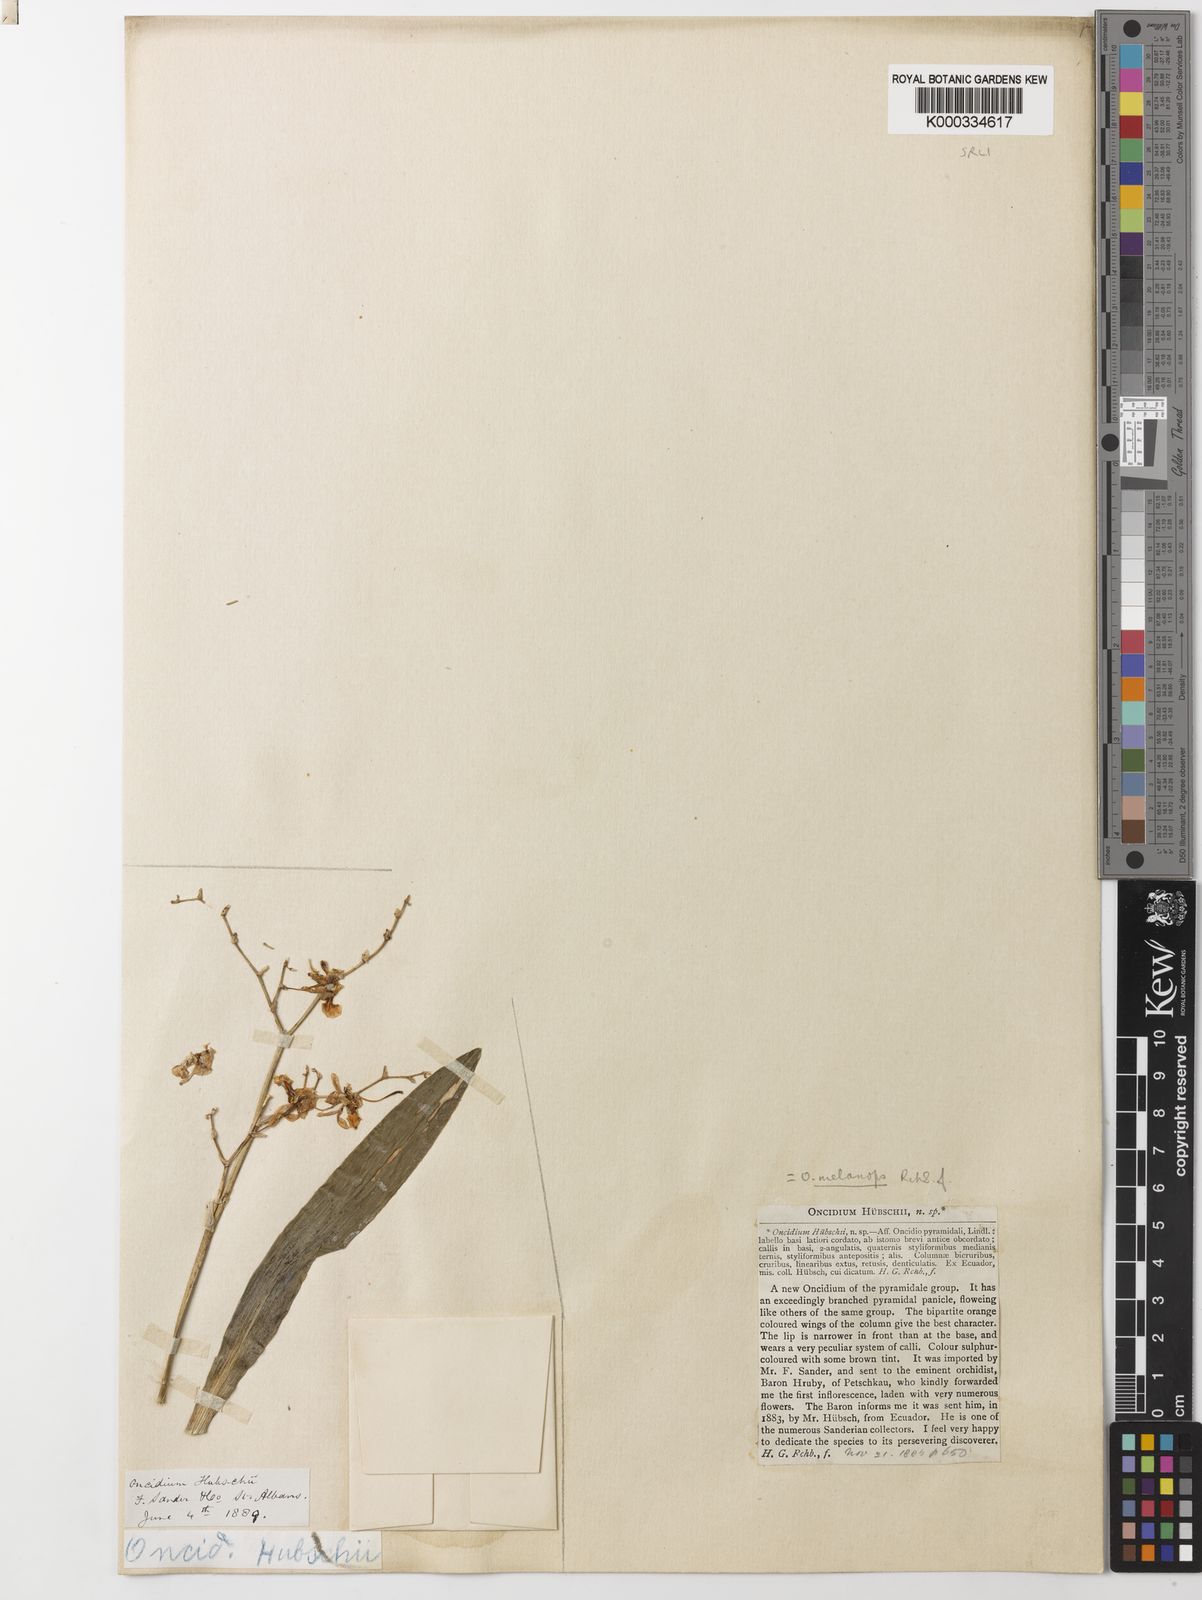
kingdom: Plantae
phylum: Tracheophyta
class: Liliopsida
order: Asparagales
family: Orchidaceae
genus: Oncidium
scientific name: Oncidium lancifolium
